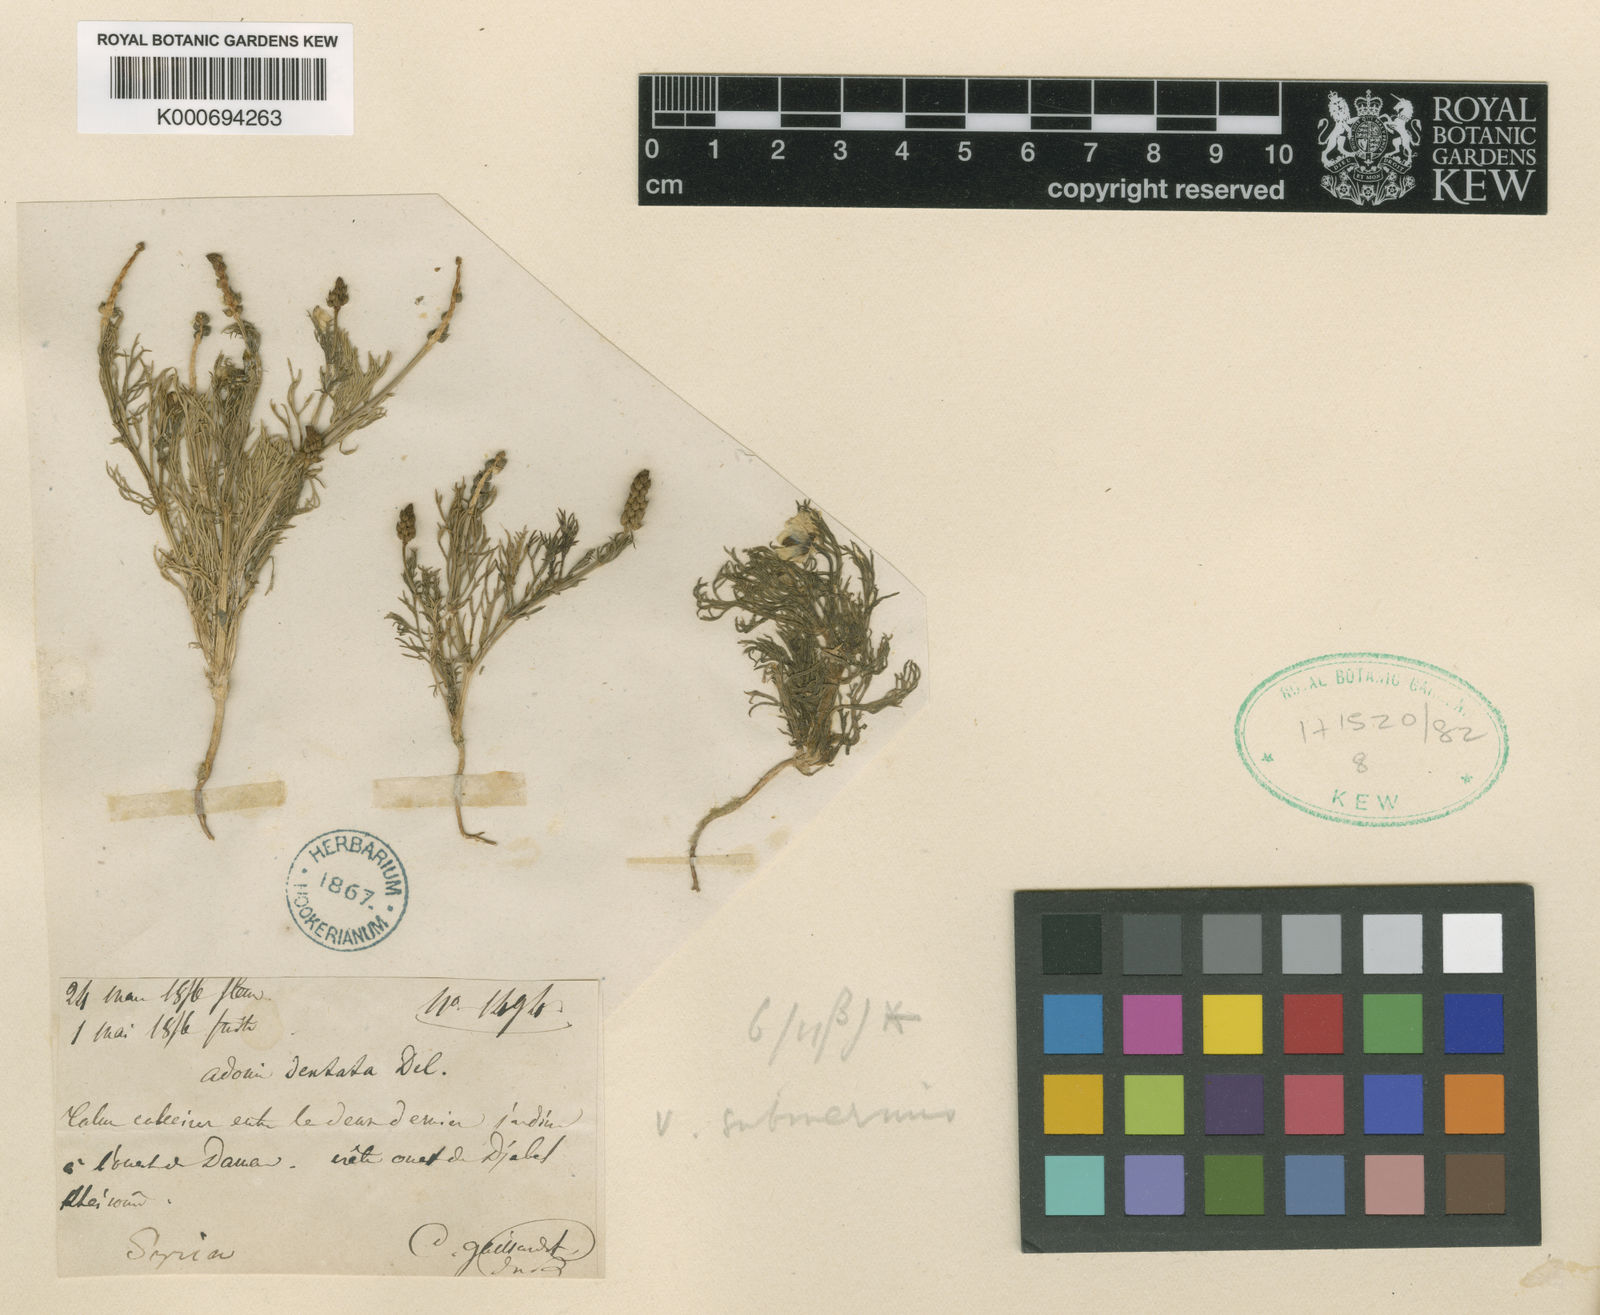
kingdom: Plantae
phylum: Tracheophyta
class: Magnoliopsida
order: Ranunculales
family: Ranunculaceae
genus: Adonis
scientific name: Adonis dentata
